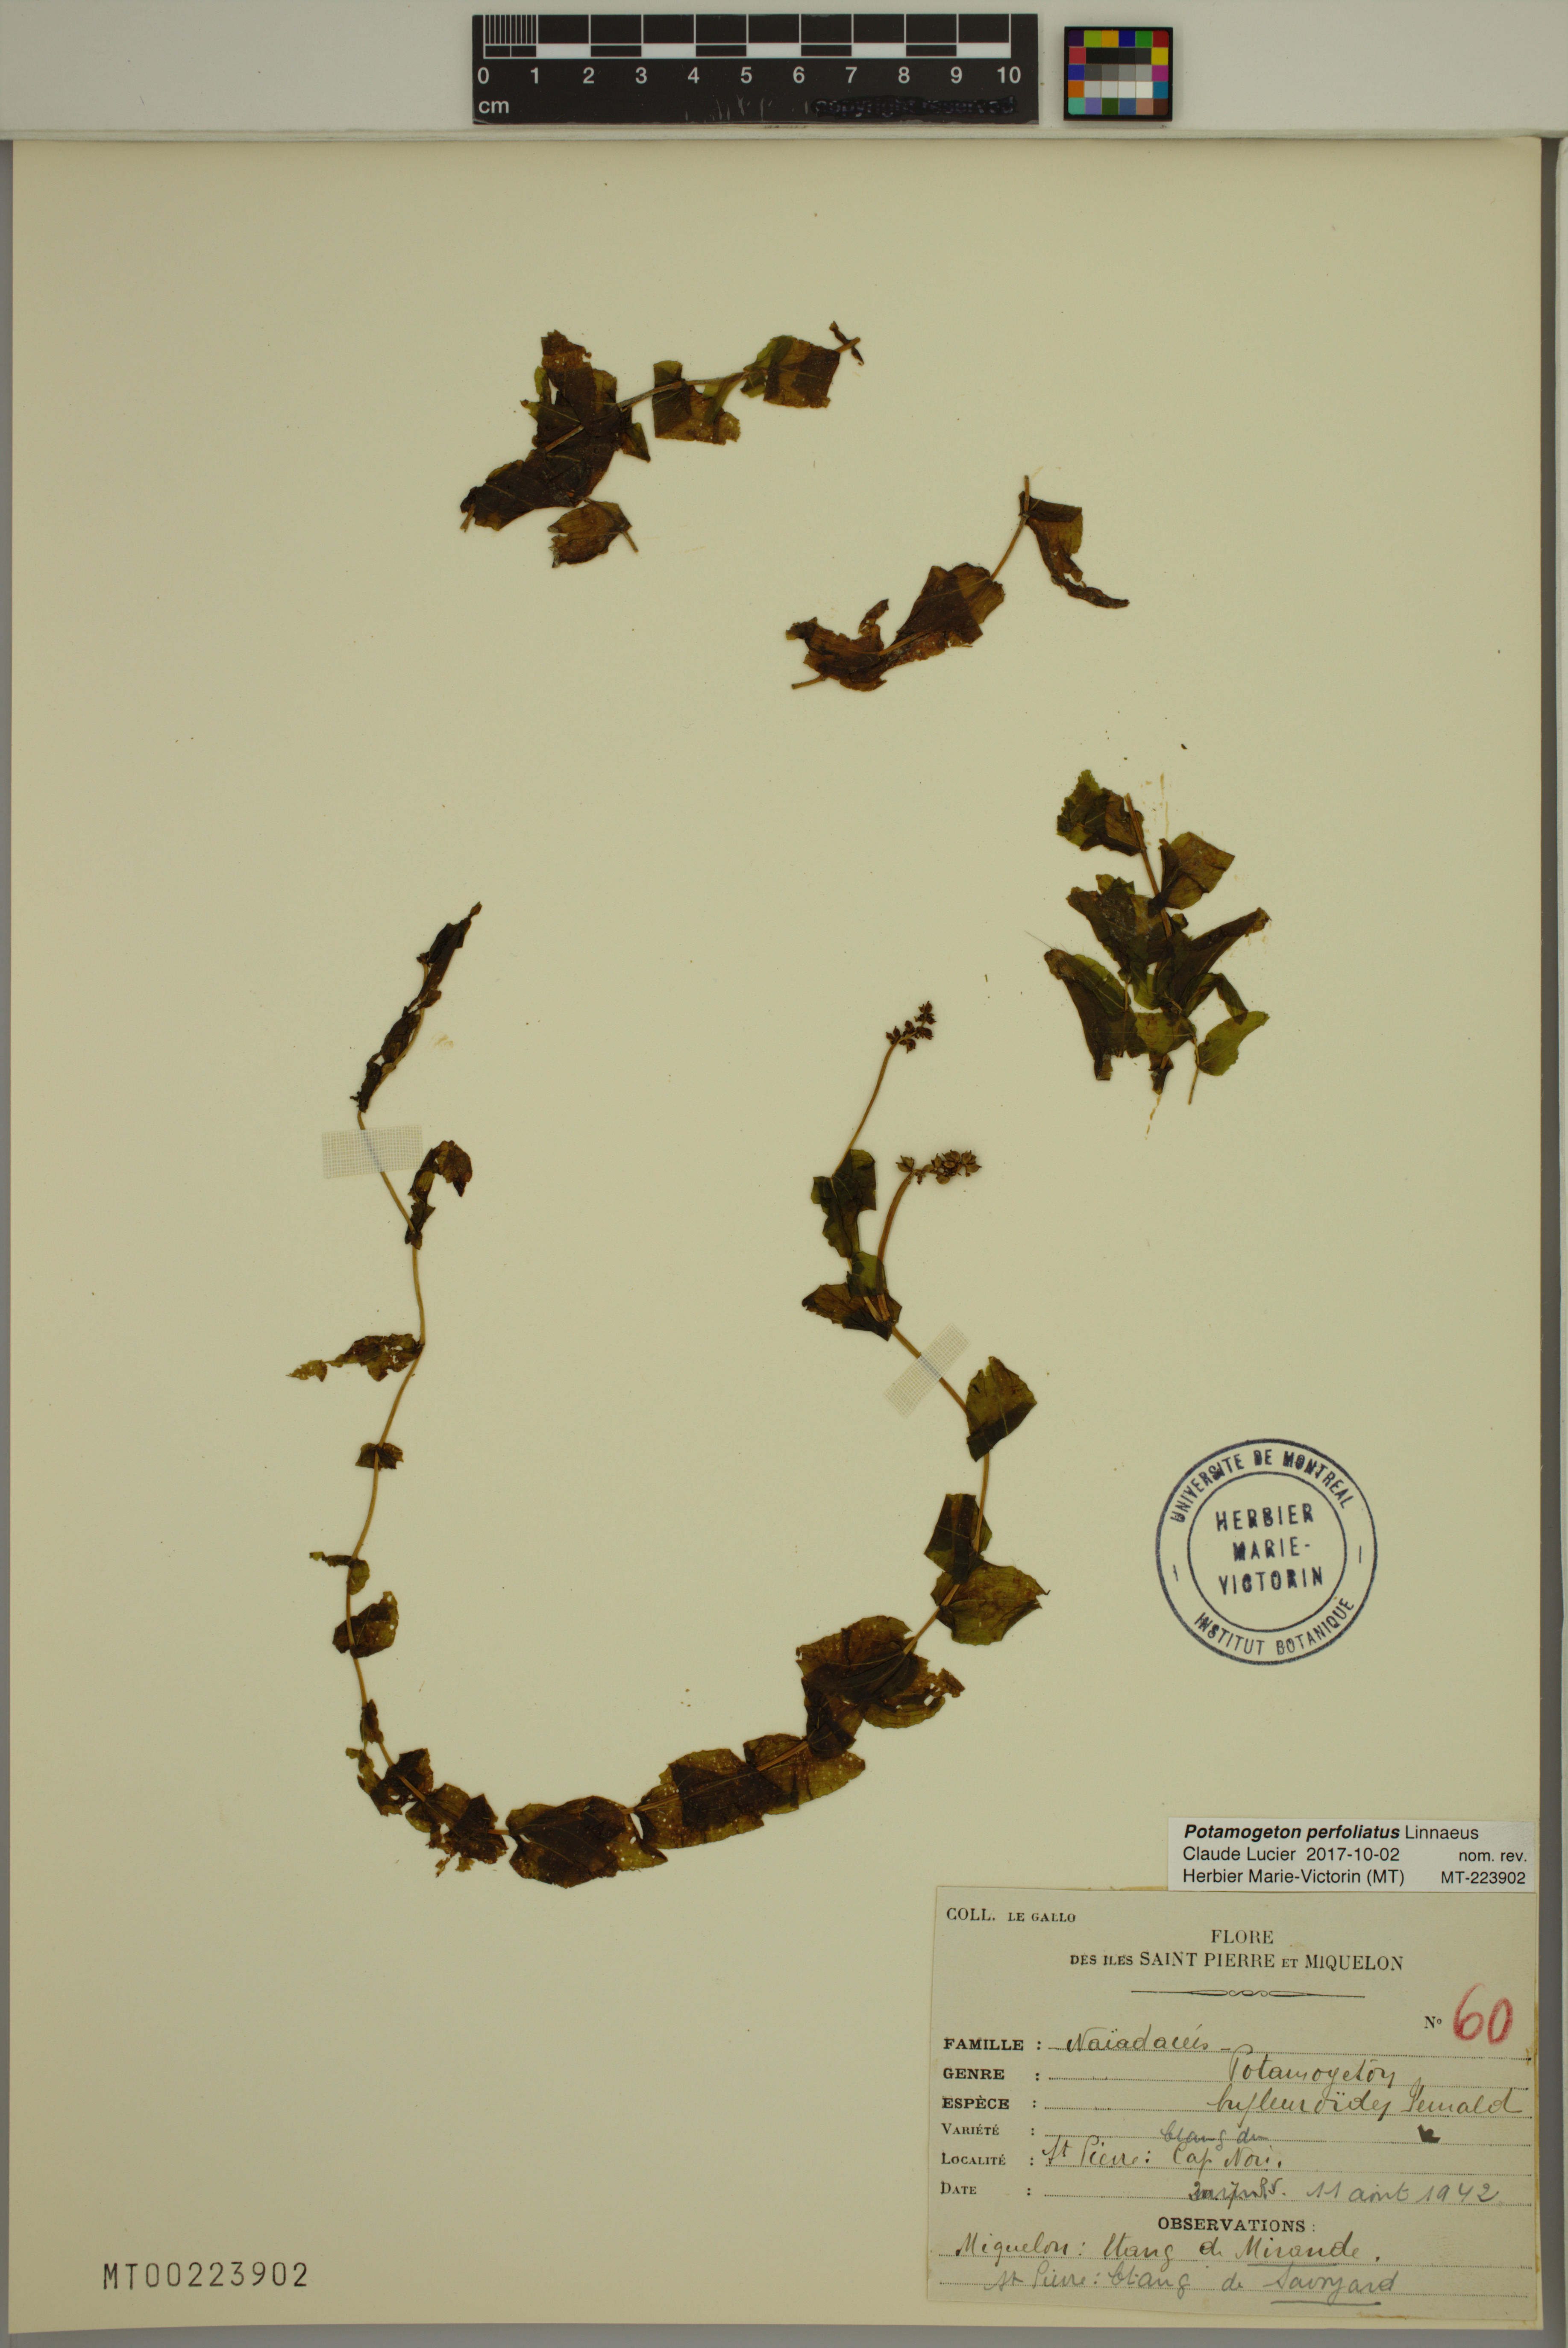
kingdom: Plantae
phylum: Tracheophyta
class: Liliopsida
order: Alismatales
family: Potamogetonaceae
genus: Potamogeton
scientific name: Potamogeton perfoliatus
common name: Perfoliate pondweed
